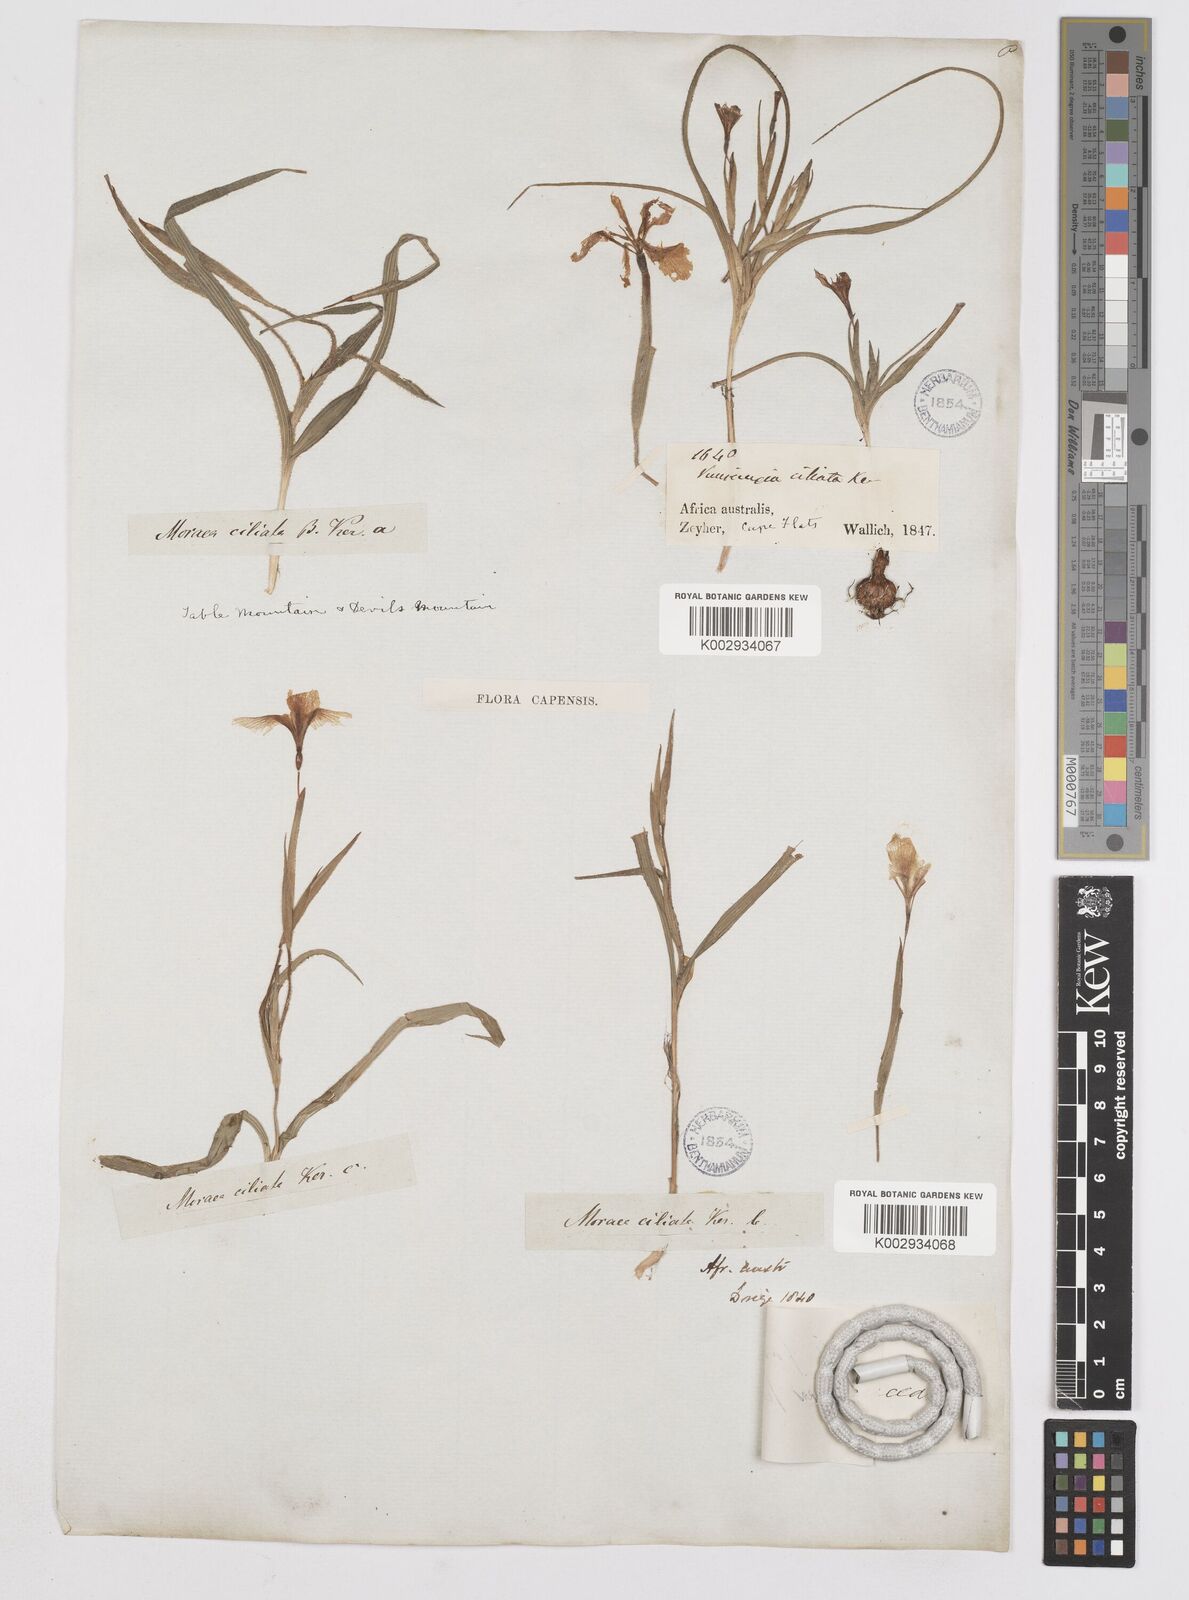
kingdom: Plantae
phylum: Tracheophyta
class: Liliopsida
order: Asparagales
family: Iridaceae
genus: Moraea
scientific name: Moraea papilionacea
